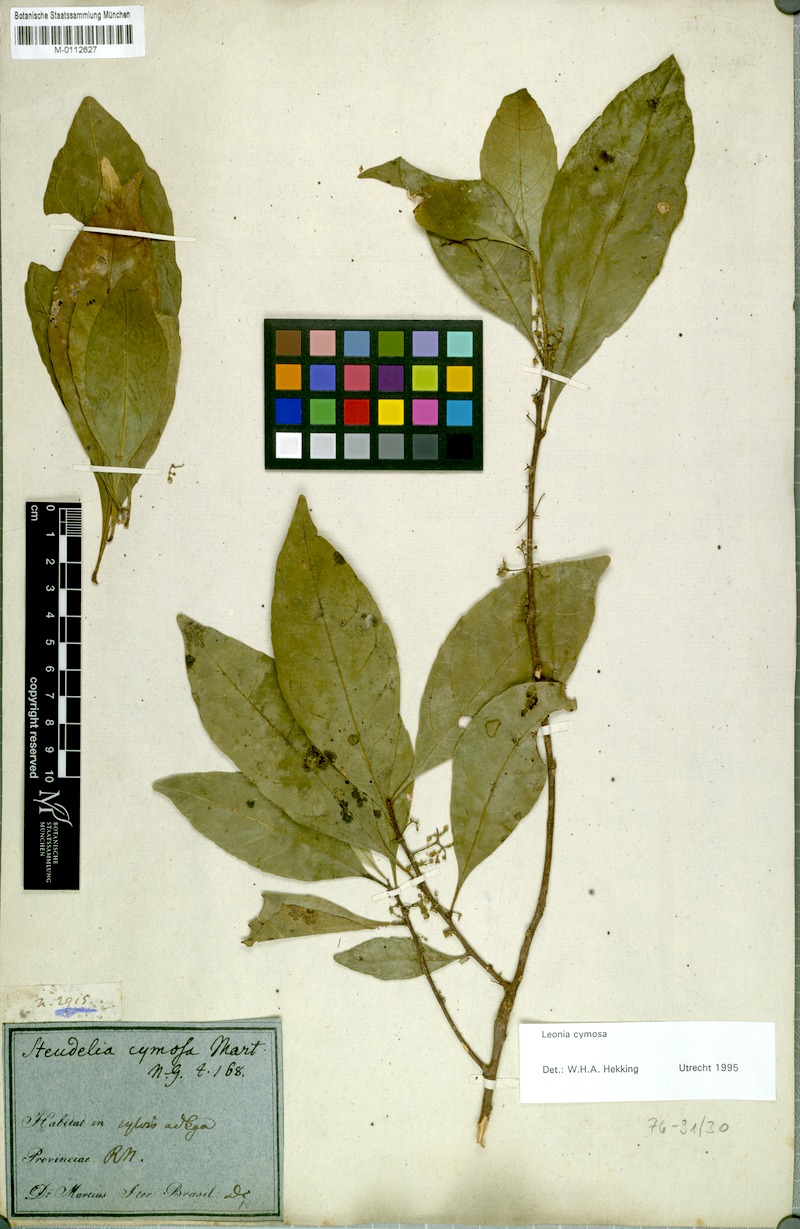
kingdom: Plantae
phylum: Tracheophyta
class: Magnoliopsida
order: Malpighiales
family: Violaceae
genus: Leonia
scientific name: Leonia cymosa
